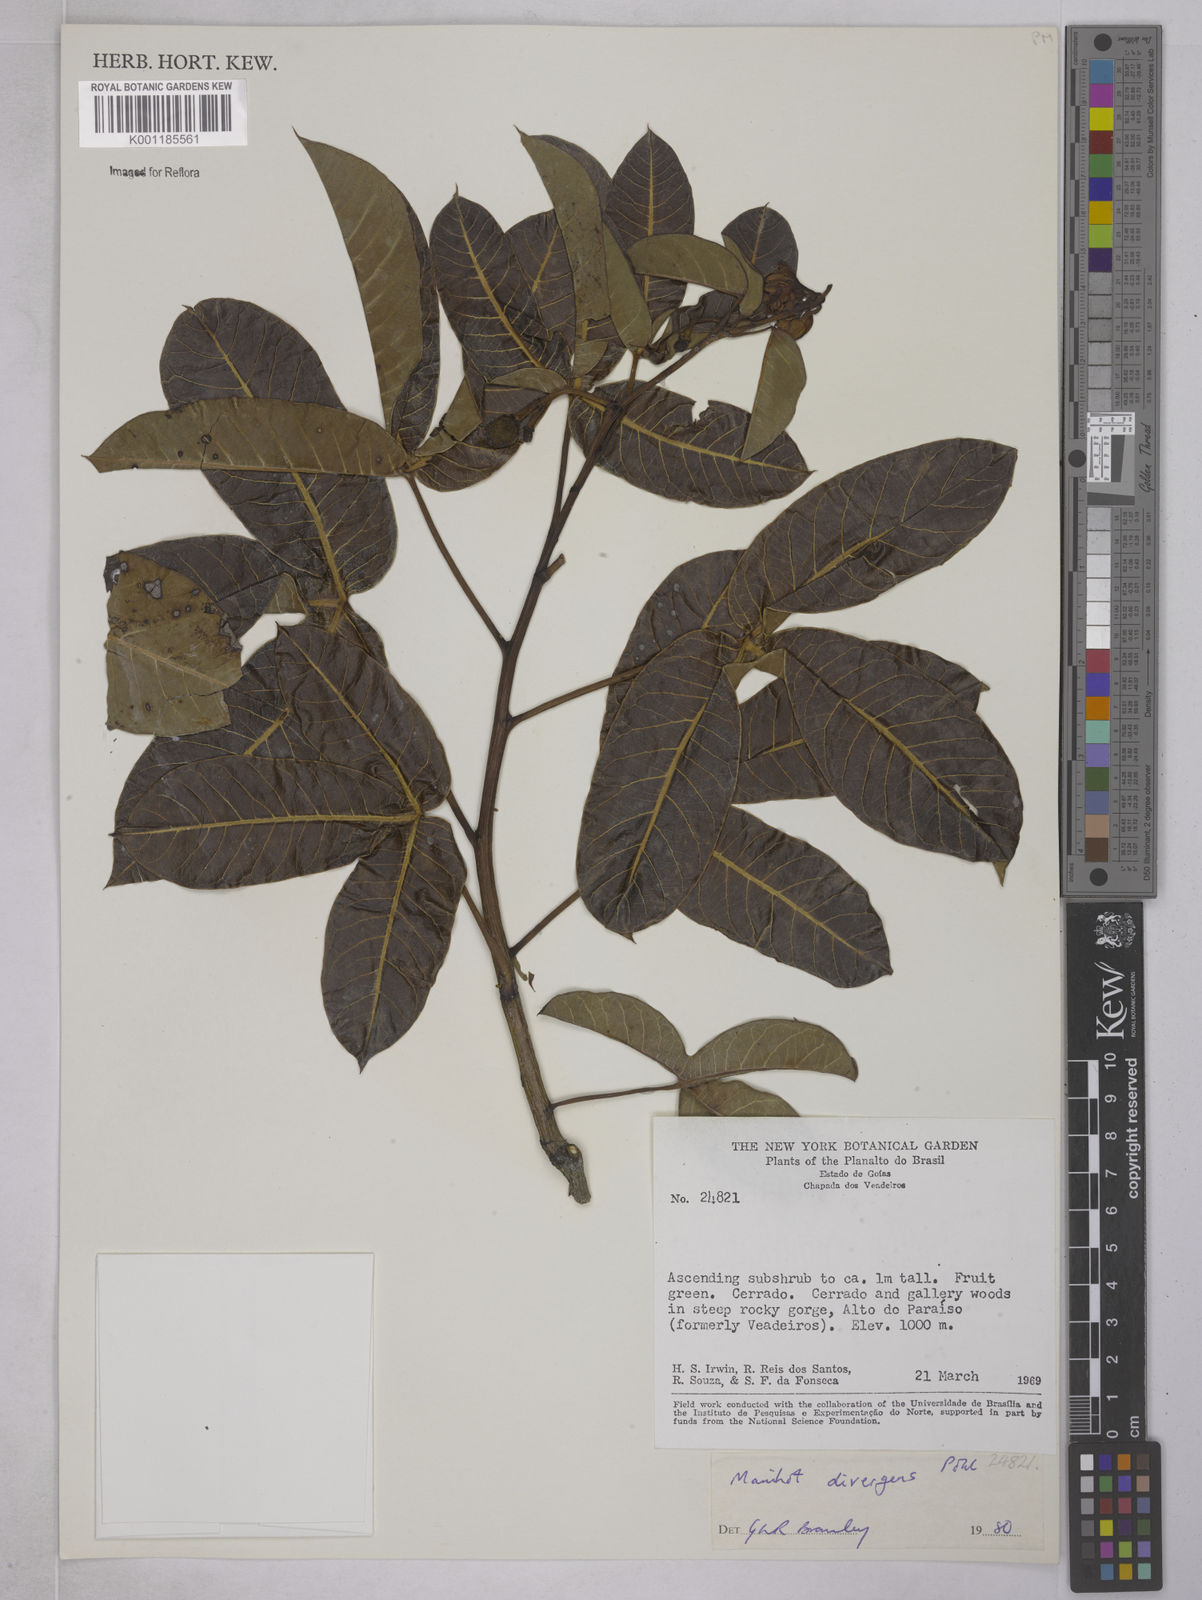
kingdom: Plantae
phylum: Tracheophyta
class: Magnoliopsida
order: Malpighiales
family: Euphorbiaceae
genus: Manihot
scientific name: Manihot divergens
